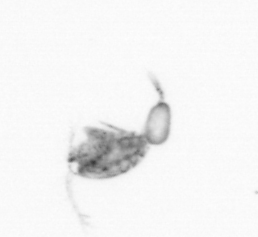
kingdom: Animalia
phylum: Arthropoda
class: Copepoda
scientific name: Copepoda
